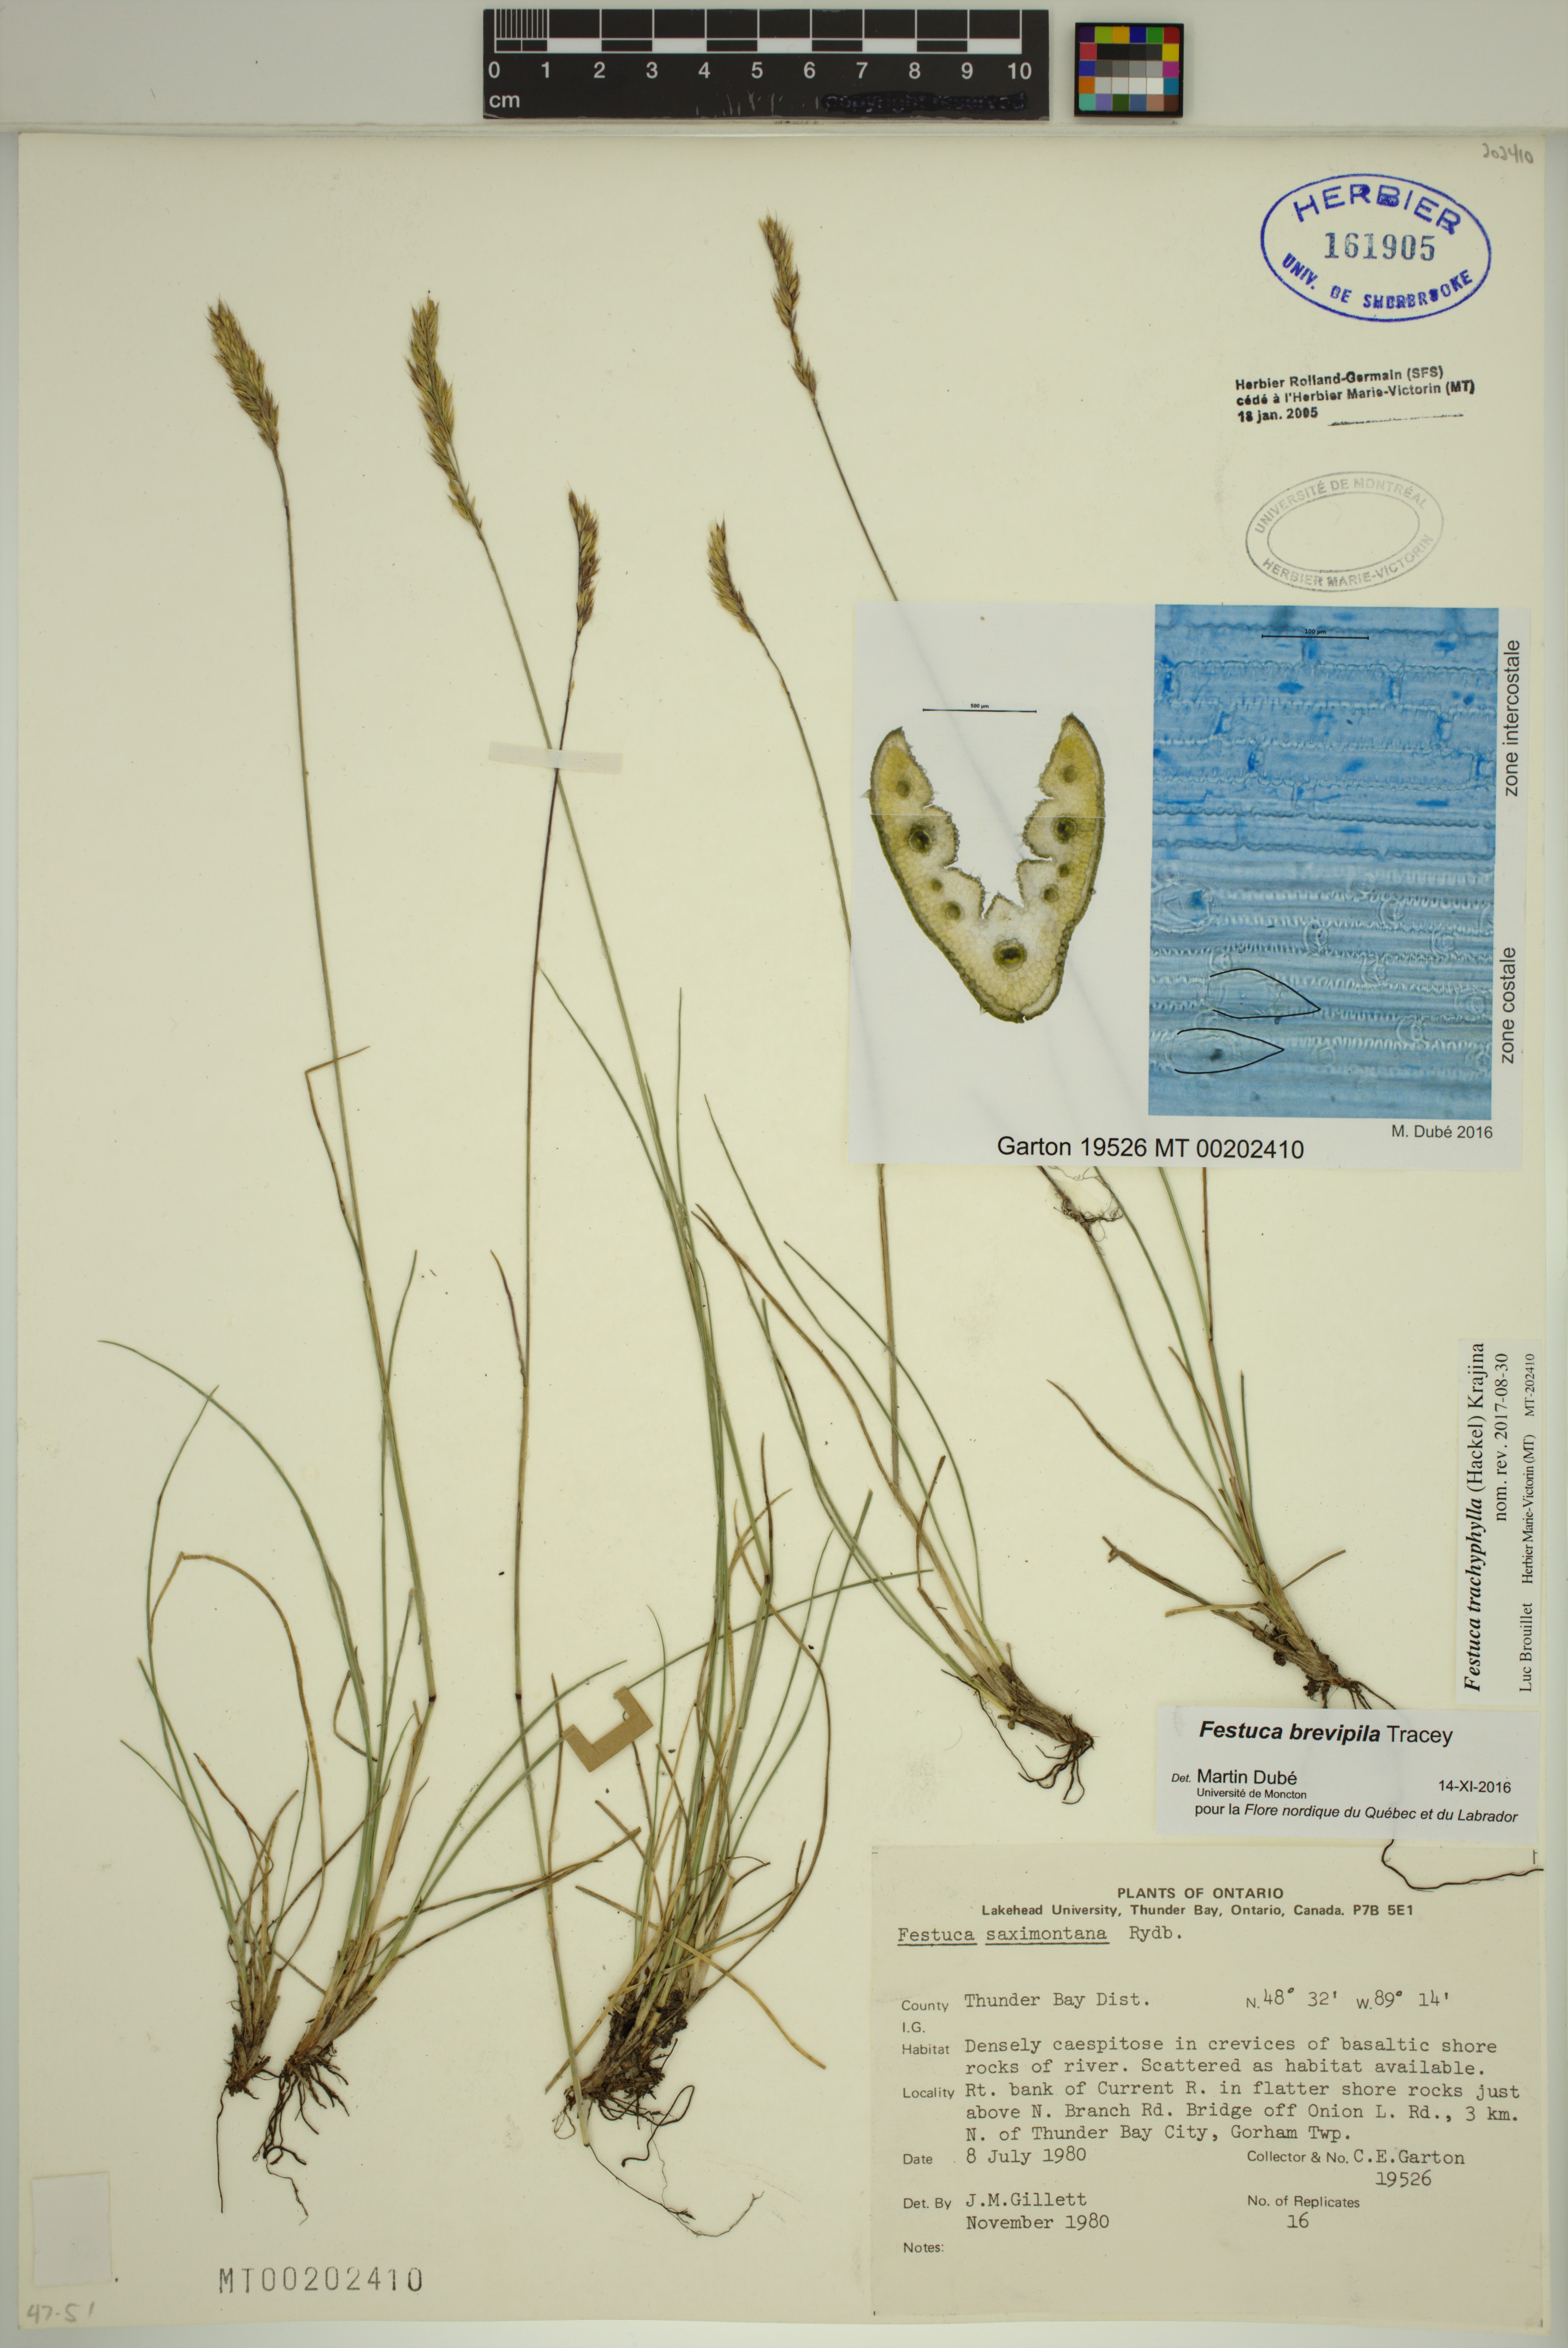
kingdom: Plantae
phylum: Tracheophyta
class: Liliopsida
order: Poales
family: Poaceae
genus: Festuca
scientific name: Festuca trachyphylla
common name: Hard fescue
